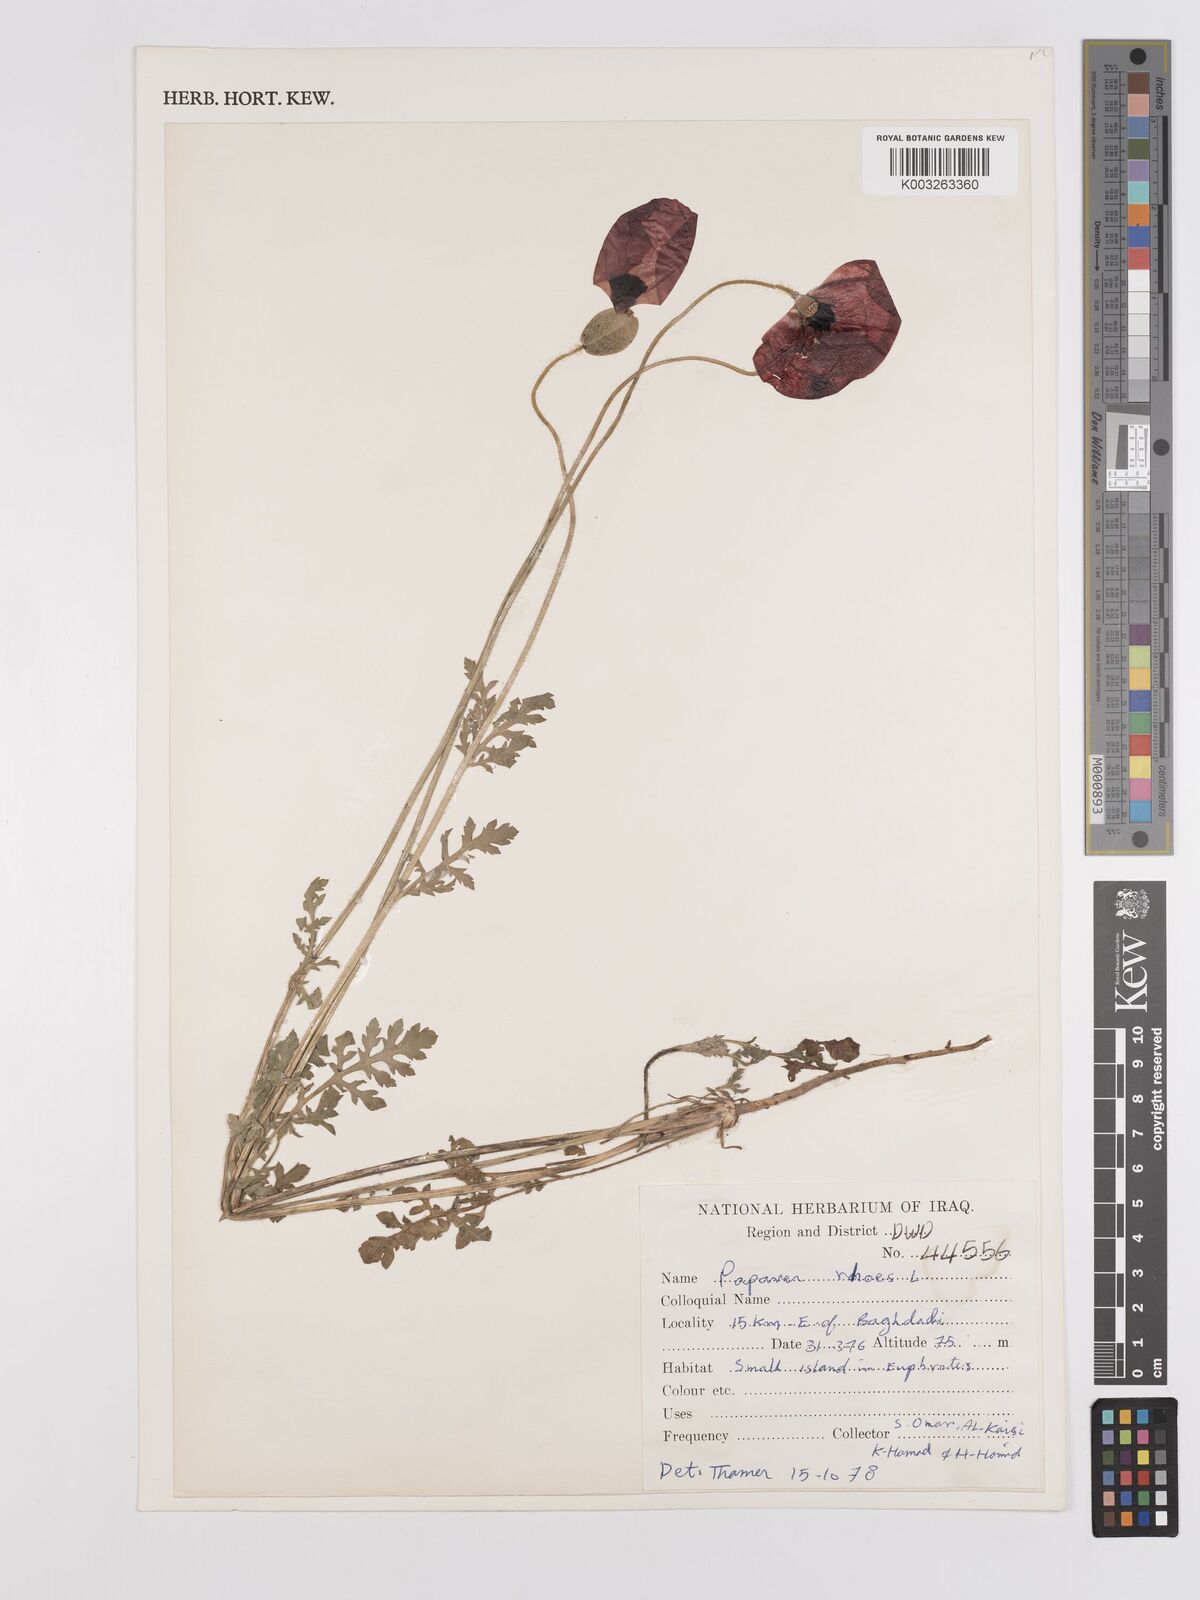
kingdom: Plantae
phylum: Tracheophyta
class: Magnoliopsida
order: Ranunculales
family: Papaveraceae
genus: Papaver
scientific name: Papaver rhoeas
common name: Corn poppy
